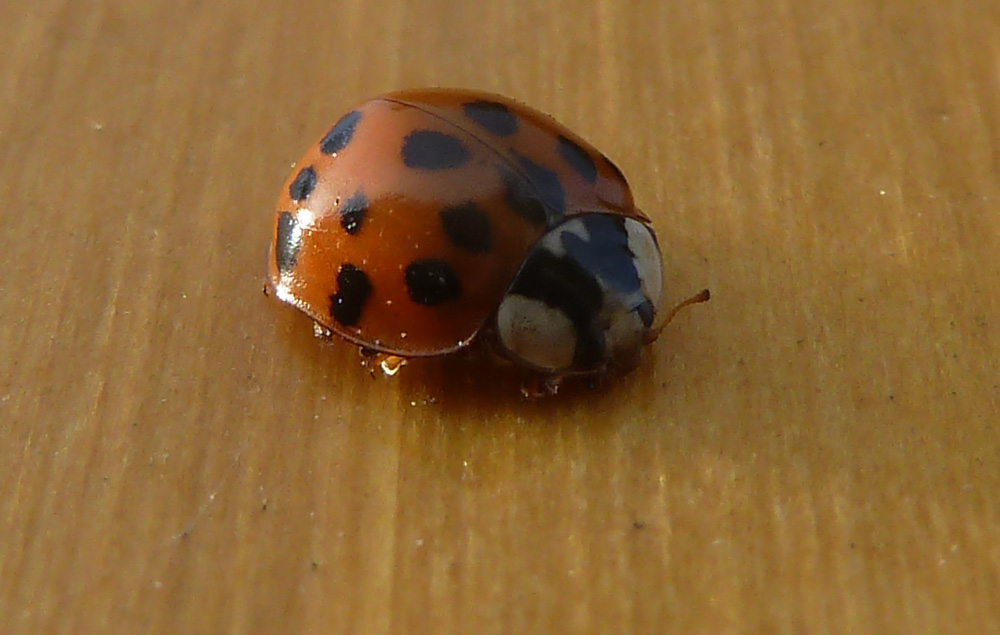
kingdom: Animalia
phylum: Arthropoda
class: Insecta
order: Coleoptera
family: Coccinellidae
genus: Harmonia
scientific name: Harmonia axyridis
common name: Harlequin ladybird
